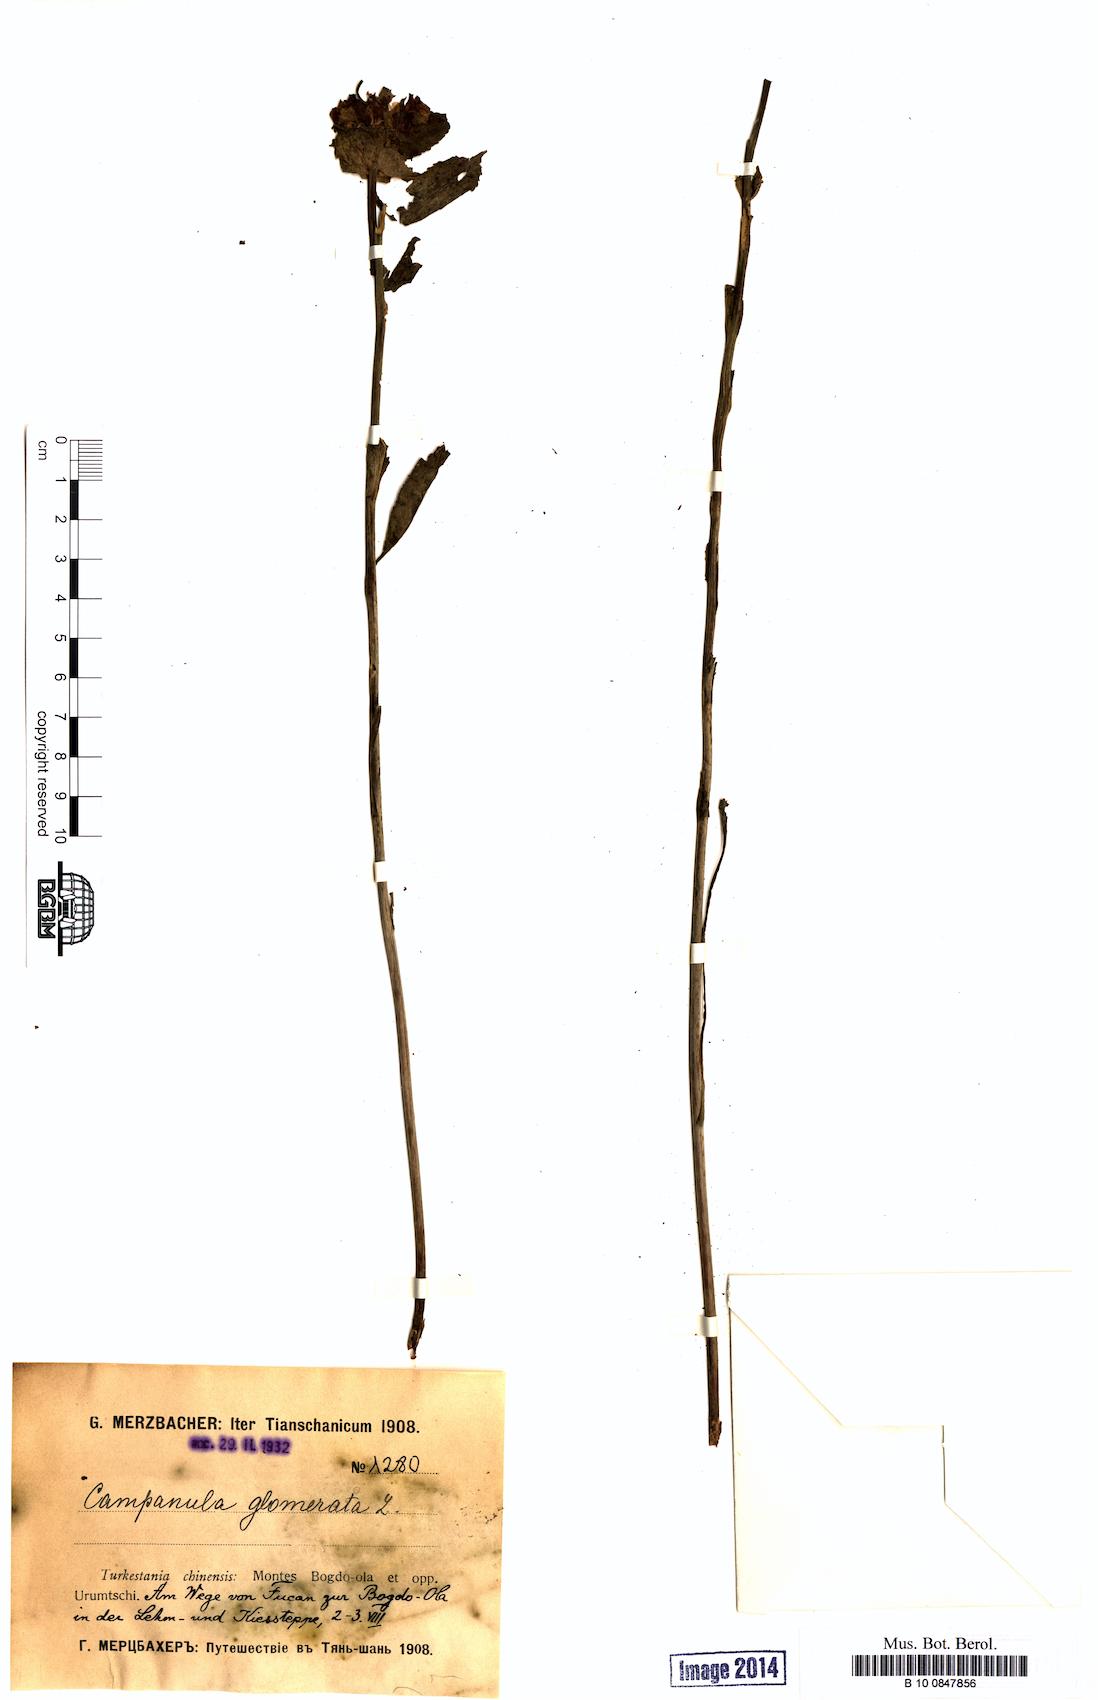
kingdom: Plantae
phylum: Tracheophyta
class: Magnoliopsida
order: Asterales
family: Campanulaceae
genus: Campanula
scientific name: Campanula glomerata
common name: Clustered bellflower
